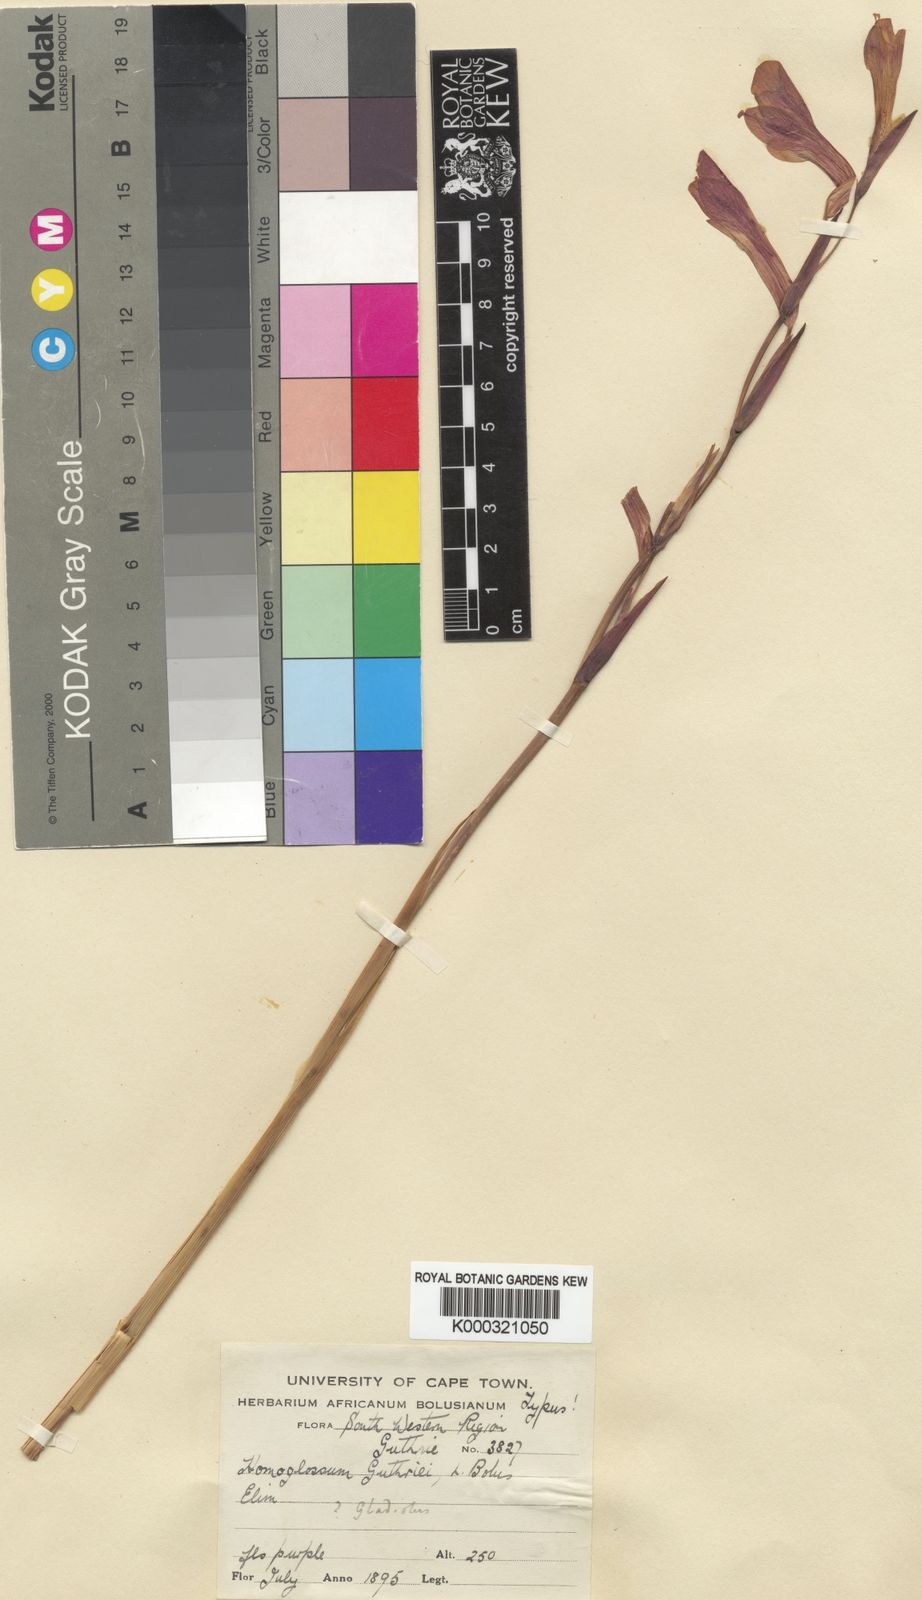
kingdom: Plantae
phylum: Tracheophyta
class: Liliopsida
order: Asparagales
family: Iridaceae
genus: Gladiolus
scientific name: Gladiolus guthriei
